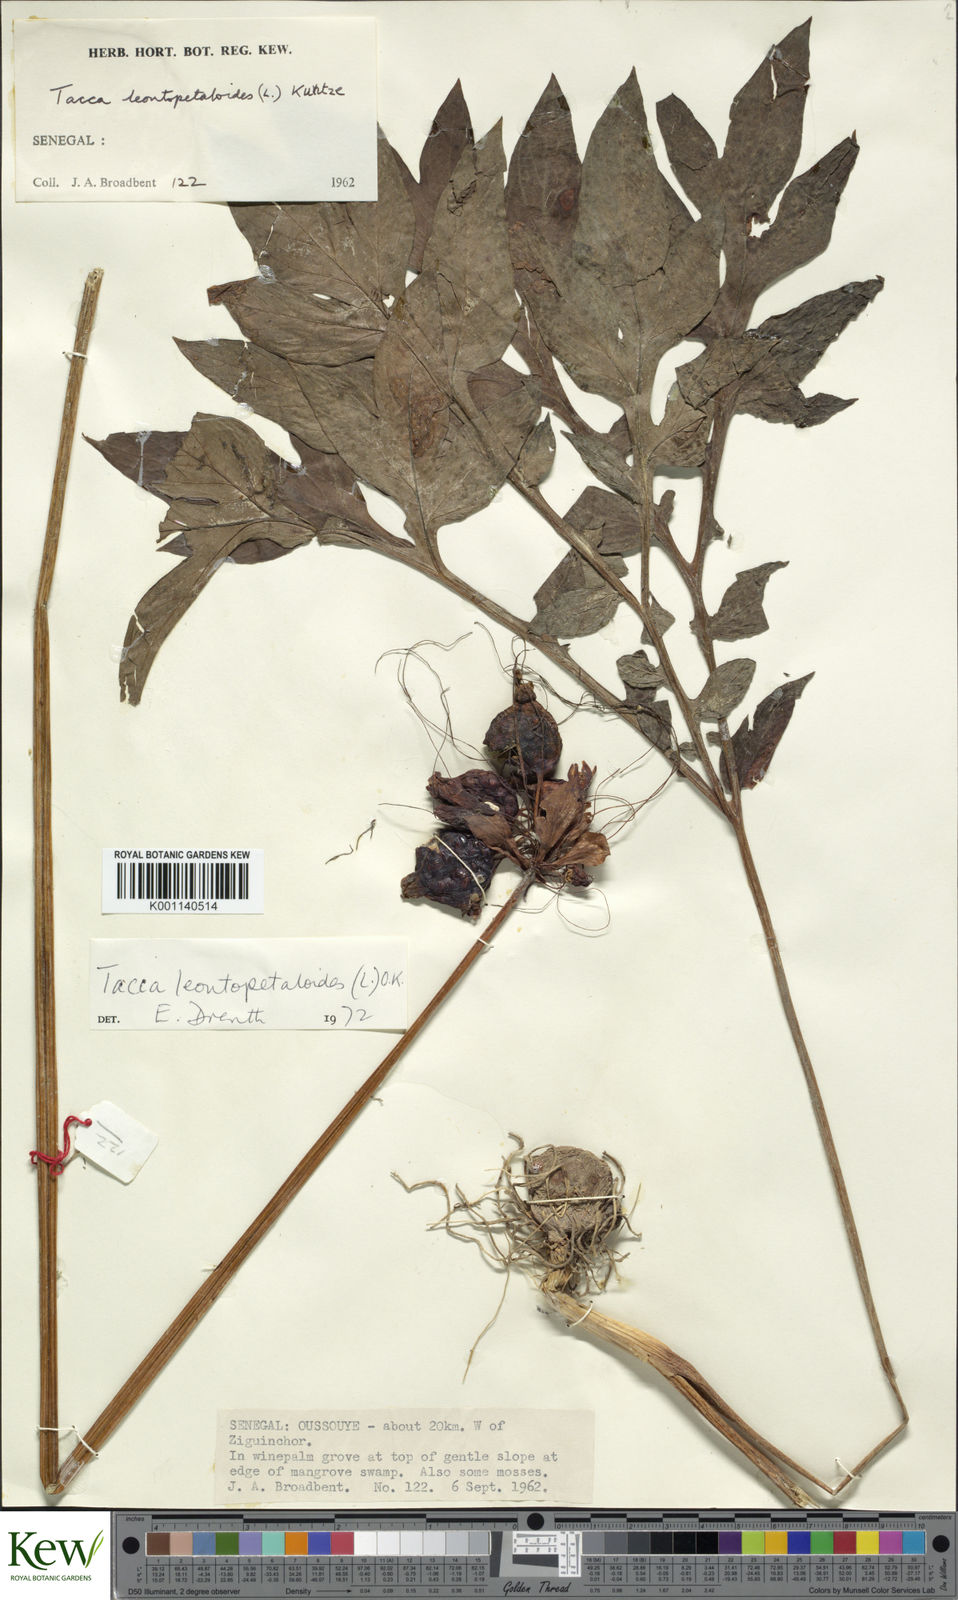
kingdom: Plantae
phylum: Tracheophyta
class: Liliopsida
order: Dioscoreales
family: Dioscoreaceae
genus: Tacca
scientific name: Tacca leontopetaloides
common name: Arrowroot
